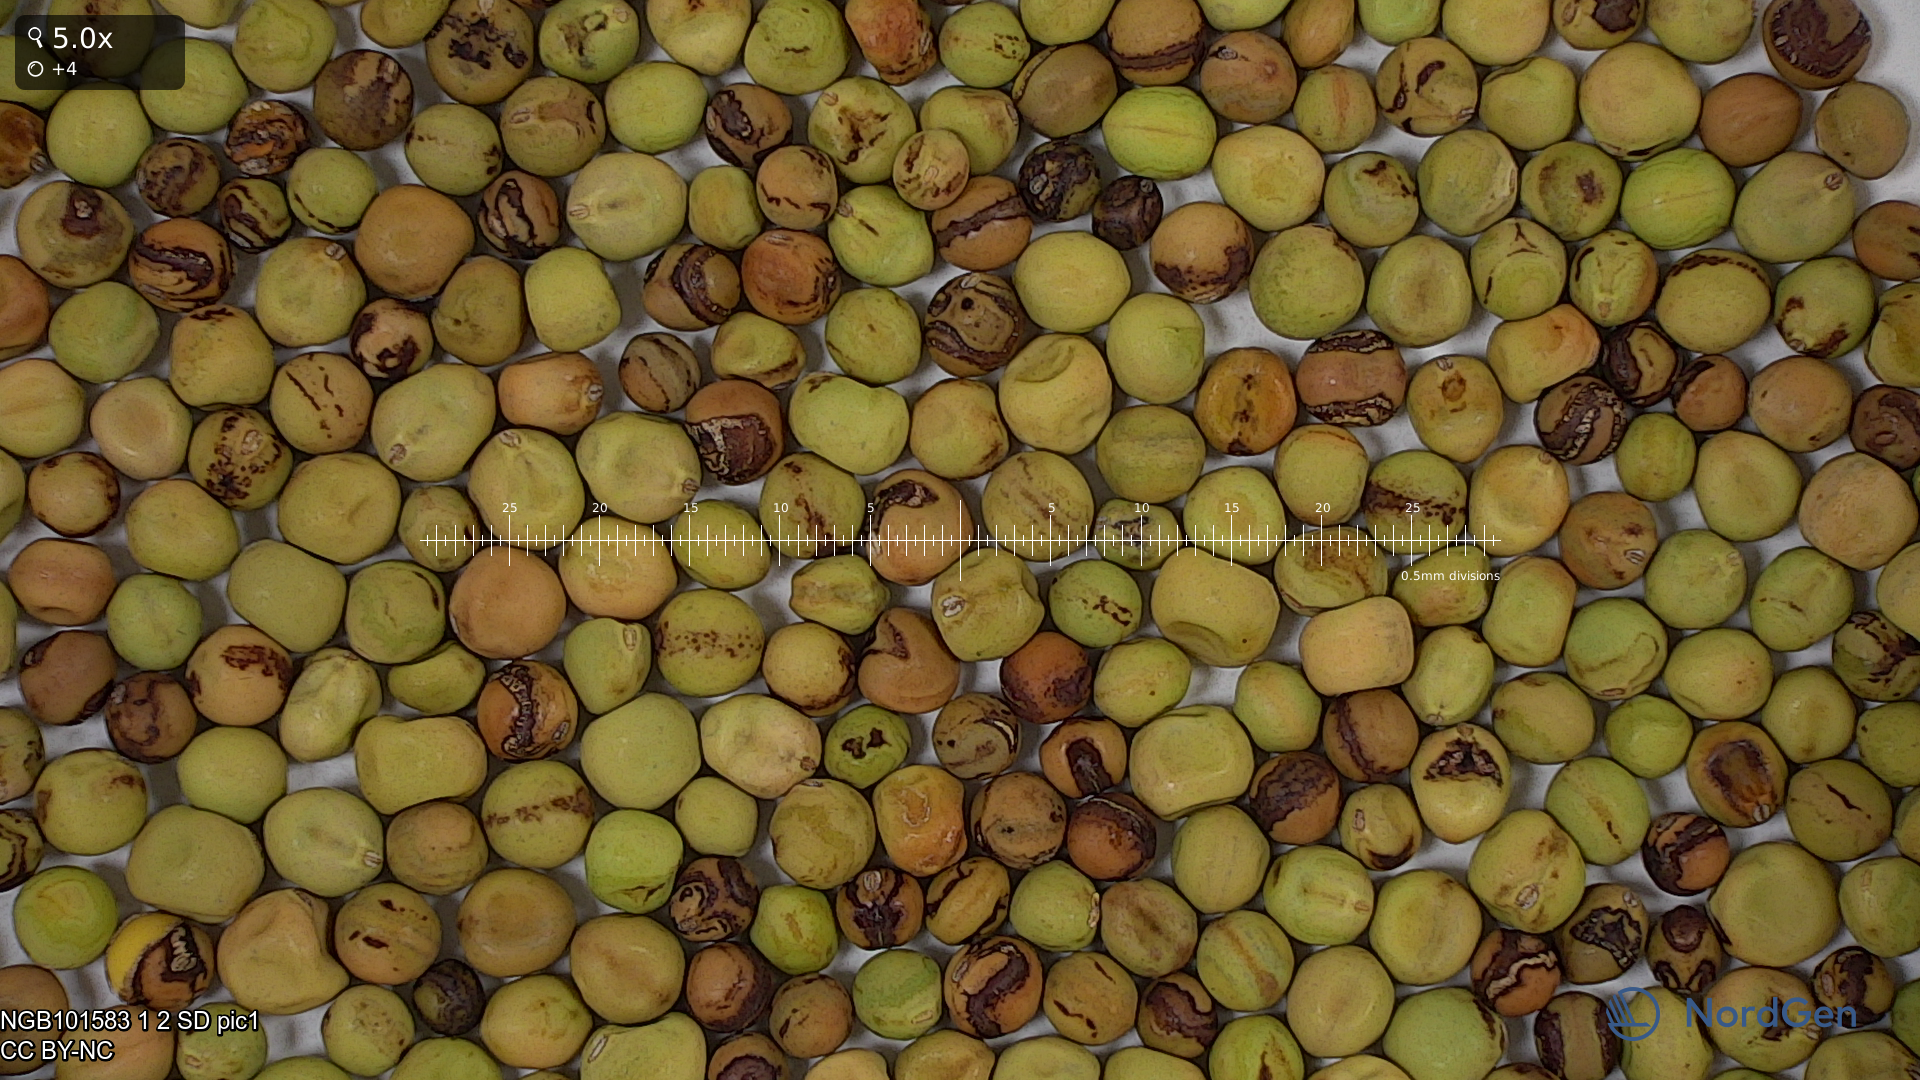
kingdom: Plantae
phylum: Tracheophyta
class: Magnoliopsida
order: Fabales
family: Fabaceae
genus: Lathyrus
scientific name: Lathyrus oleraceus
